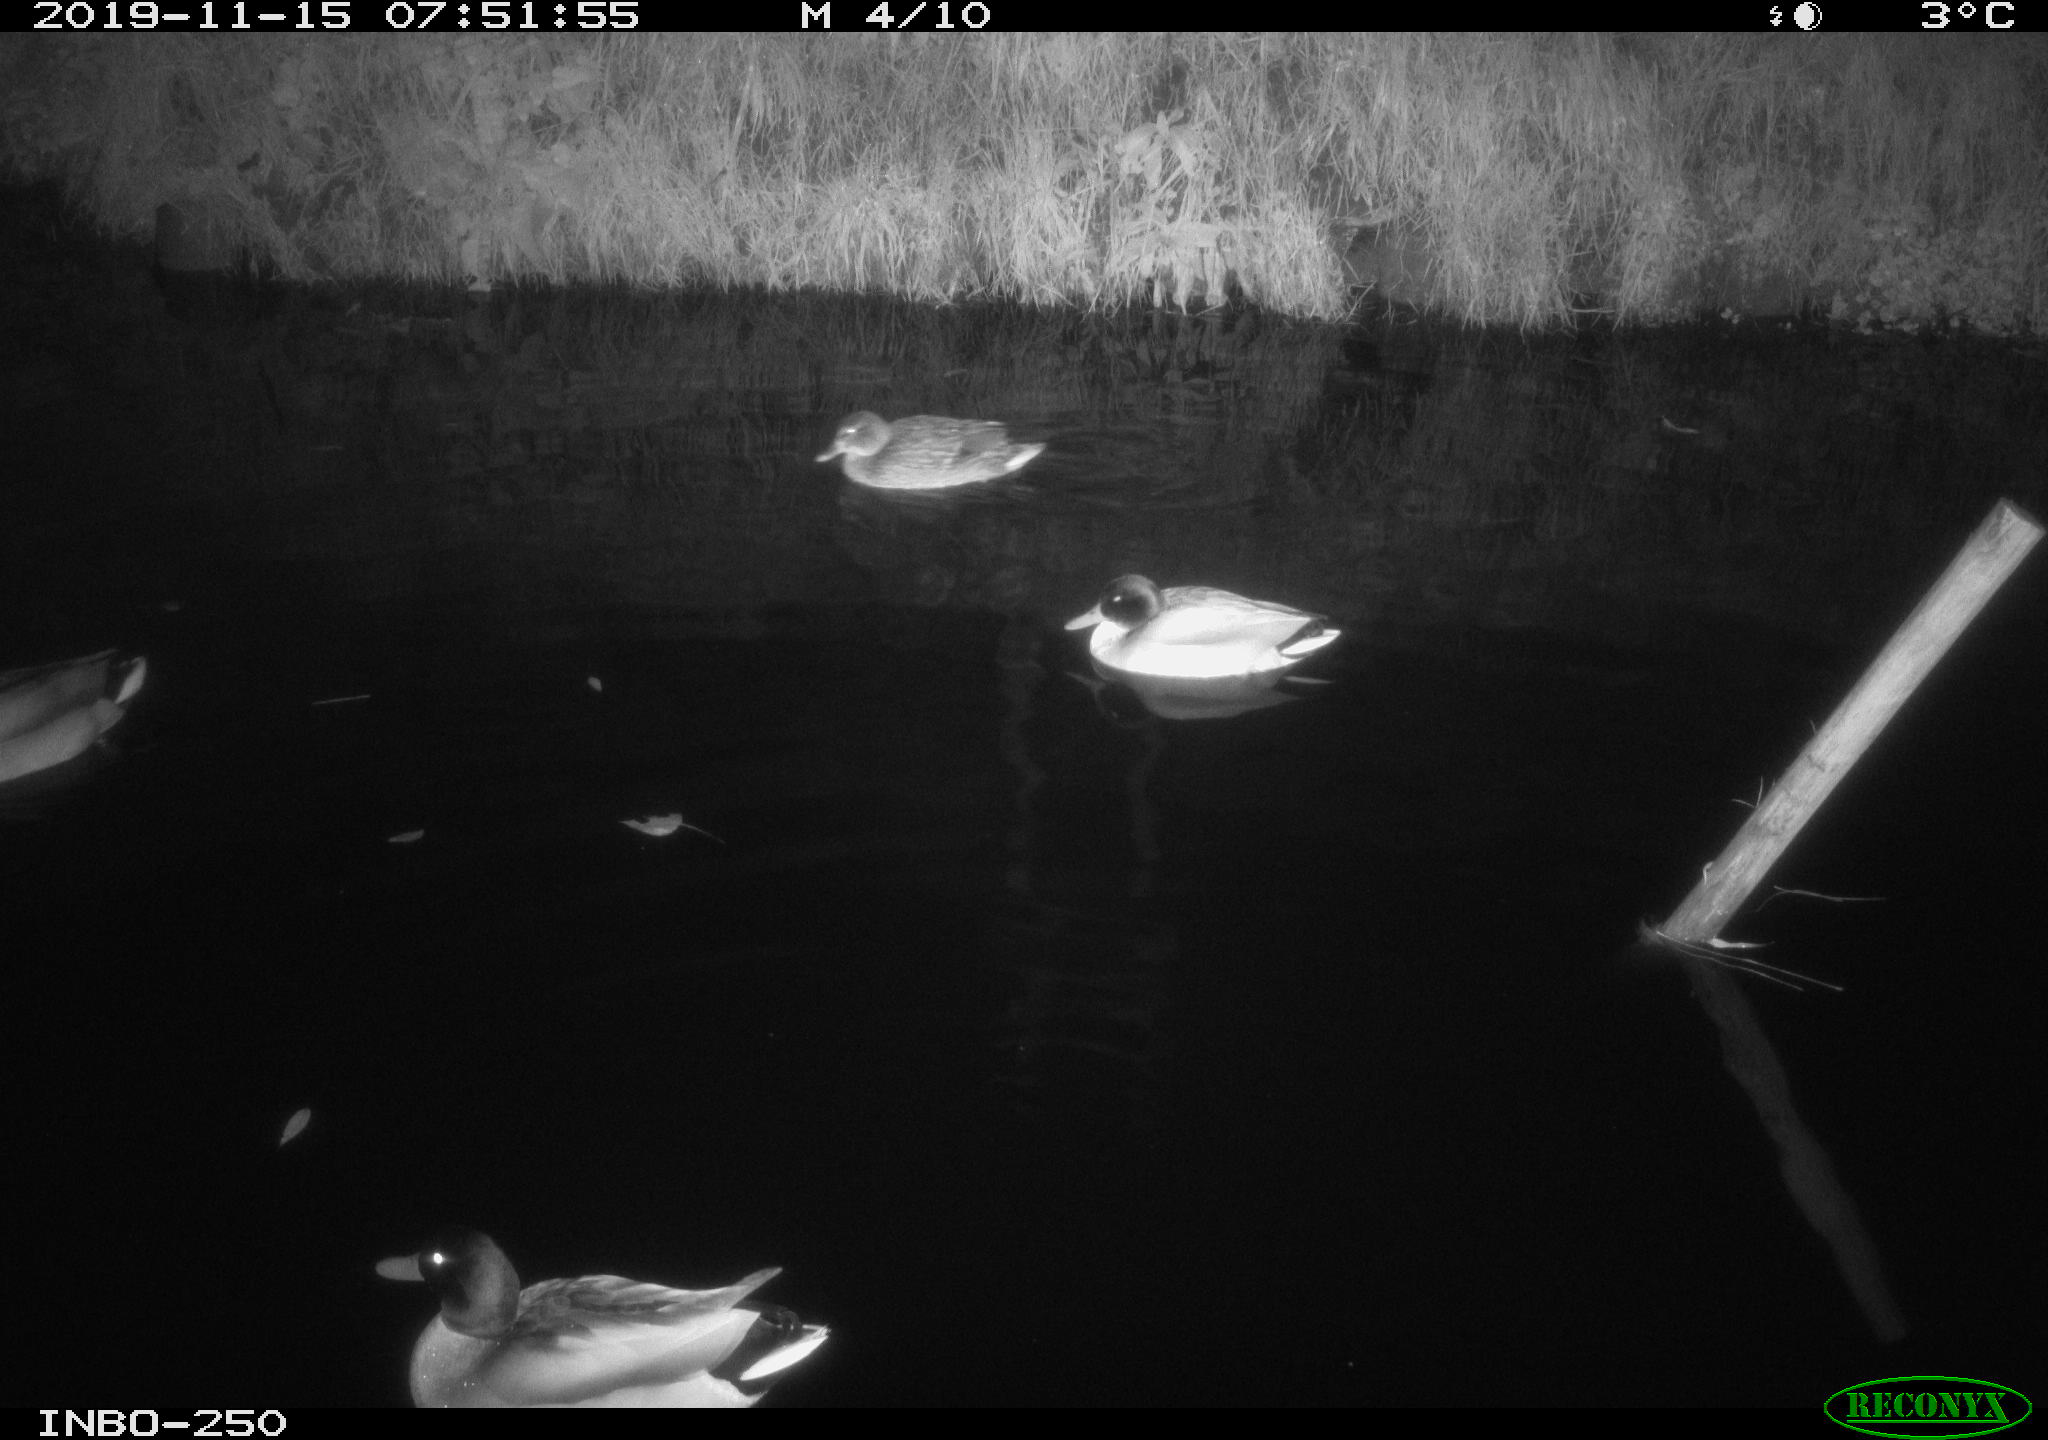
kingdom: Animalia
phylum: Chordata
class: Aves
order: Anseriformes
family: Anatidae
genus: Anas
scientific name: Anas platyrhynchos
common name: Mallard
